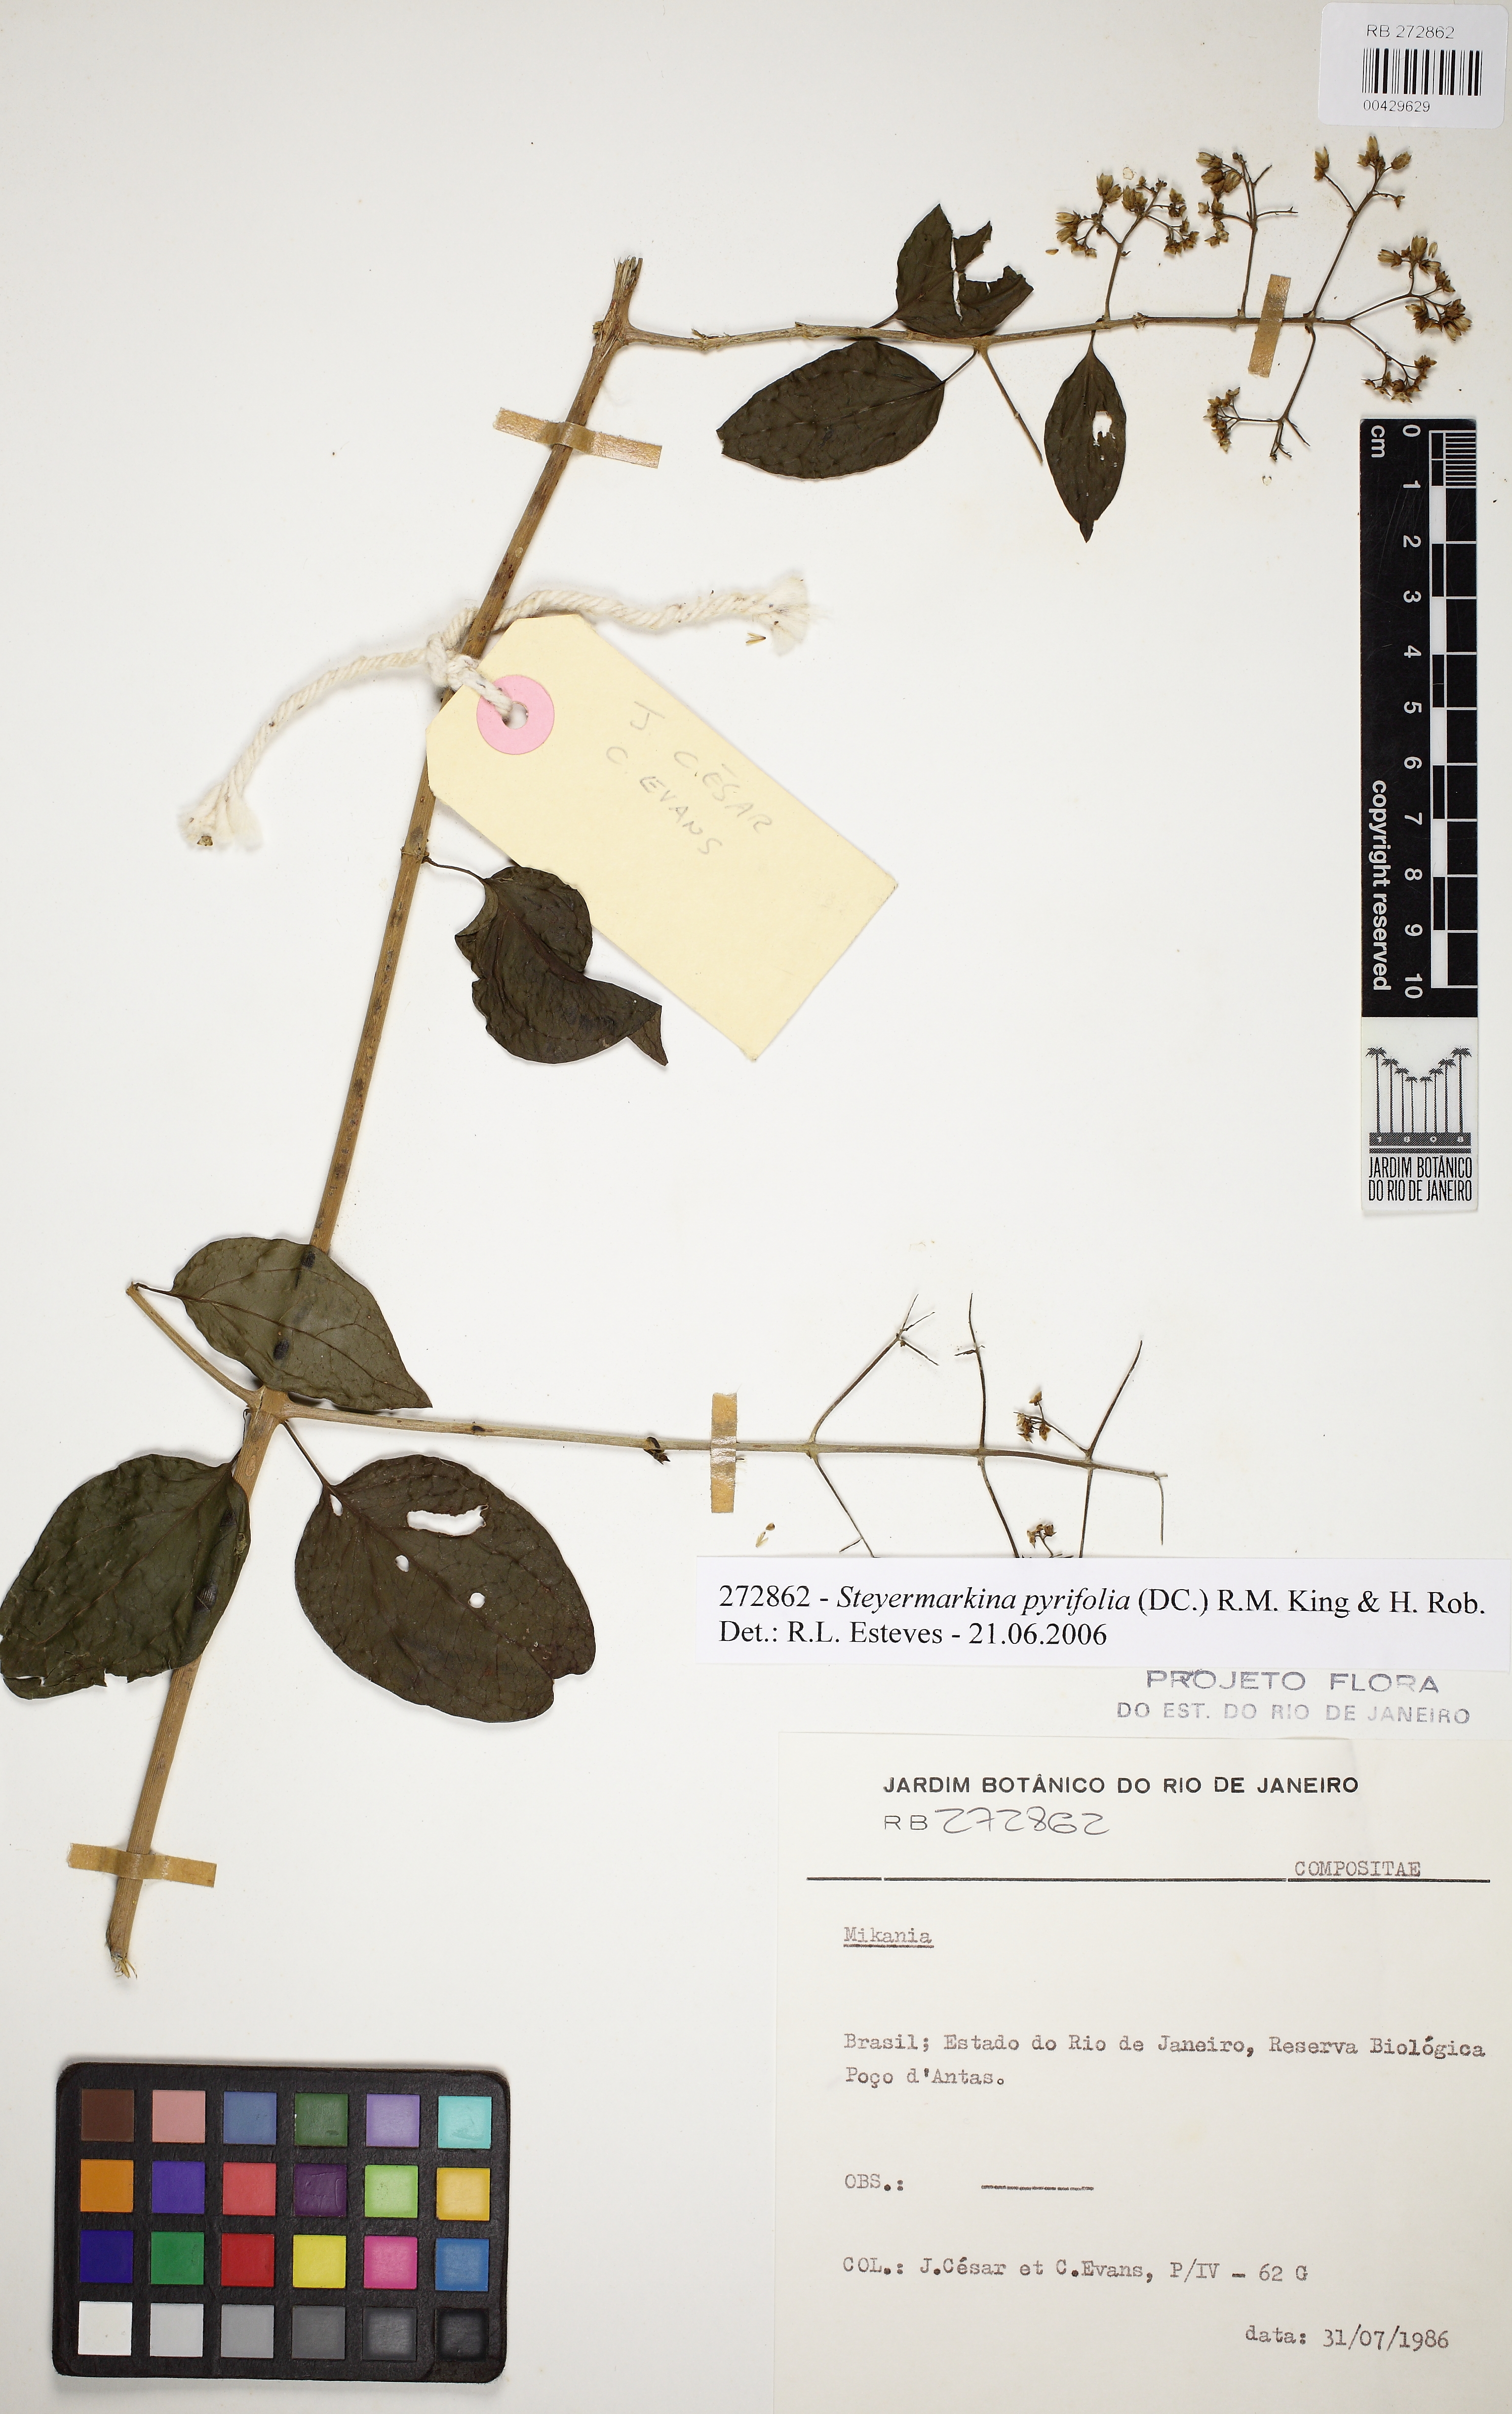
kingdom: Plantae
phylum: Tracheophyta
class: Magnoliopsida
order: Asterales
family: Asteraceae
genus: Steyermarkina
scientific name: Steyermarkina pyrifolia
